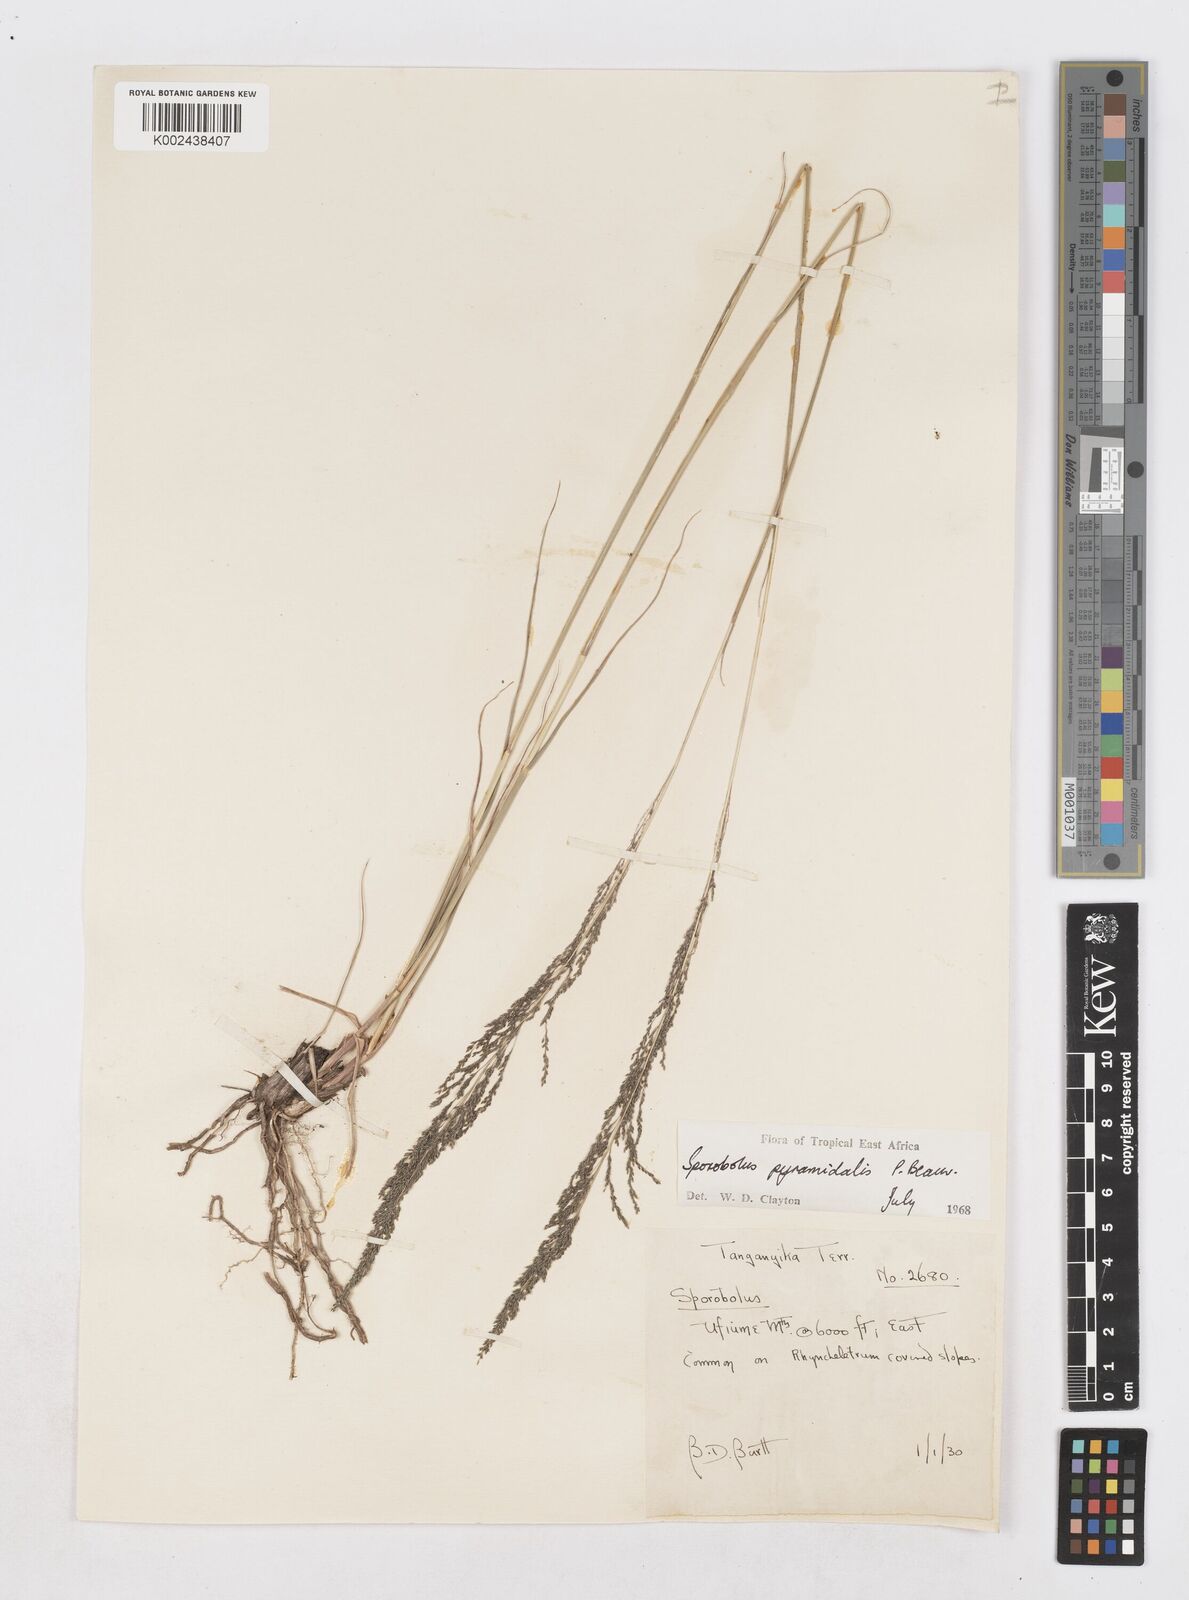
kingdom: Plantae
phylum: Tracheophyta
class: Liliopsida
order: Poales
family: Poaceae
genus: Sporobolus
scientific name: Sporobolus pyramidalis
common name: West indian dropseed
